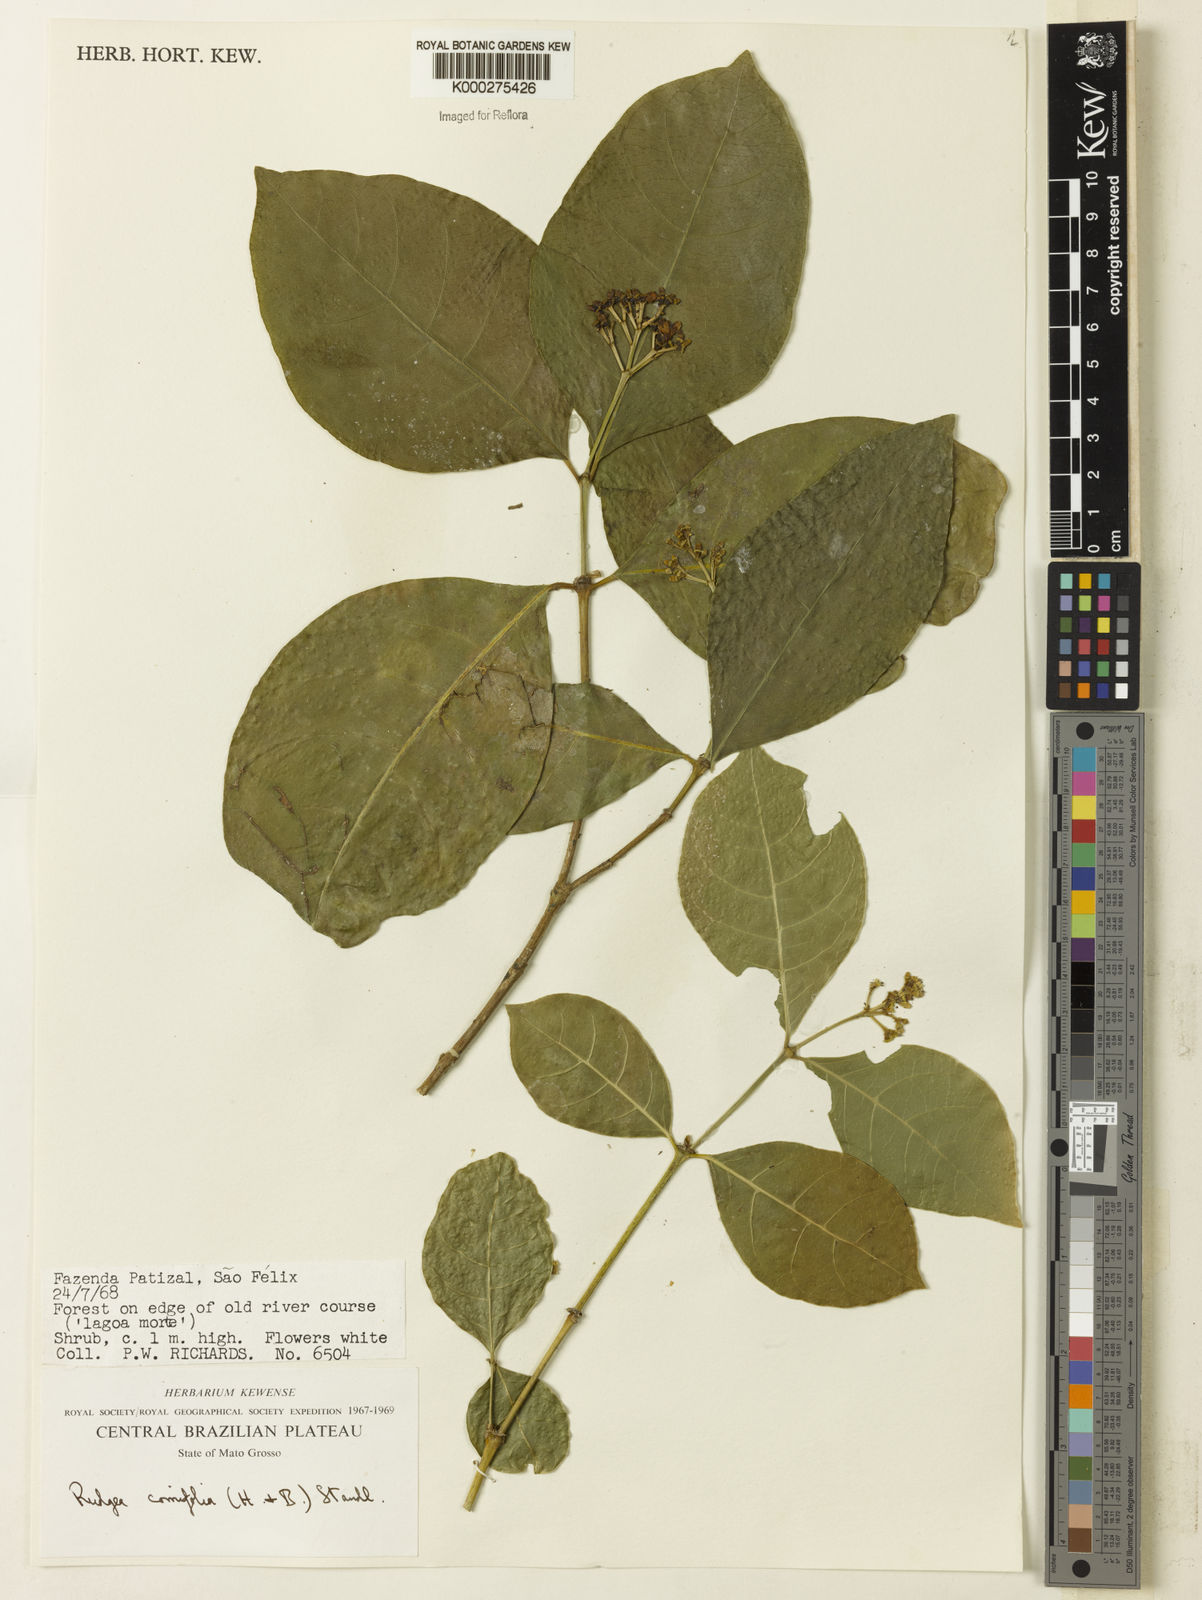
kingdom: Plantae
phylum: Tracheophyta
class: Magnoliopsida
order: Gentianales
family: Rubiaceae
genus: Rudgea
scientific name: Rudgea cornifolia
